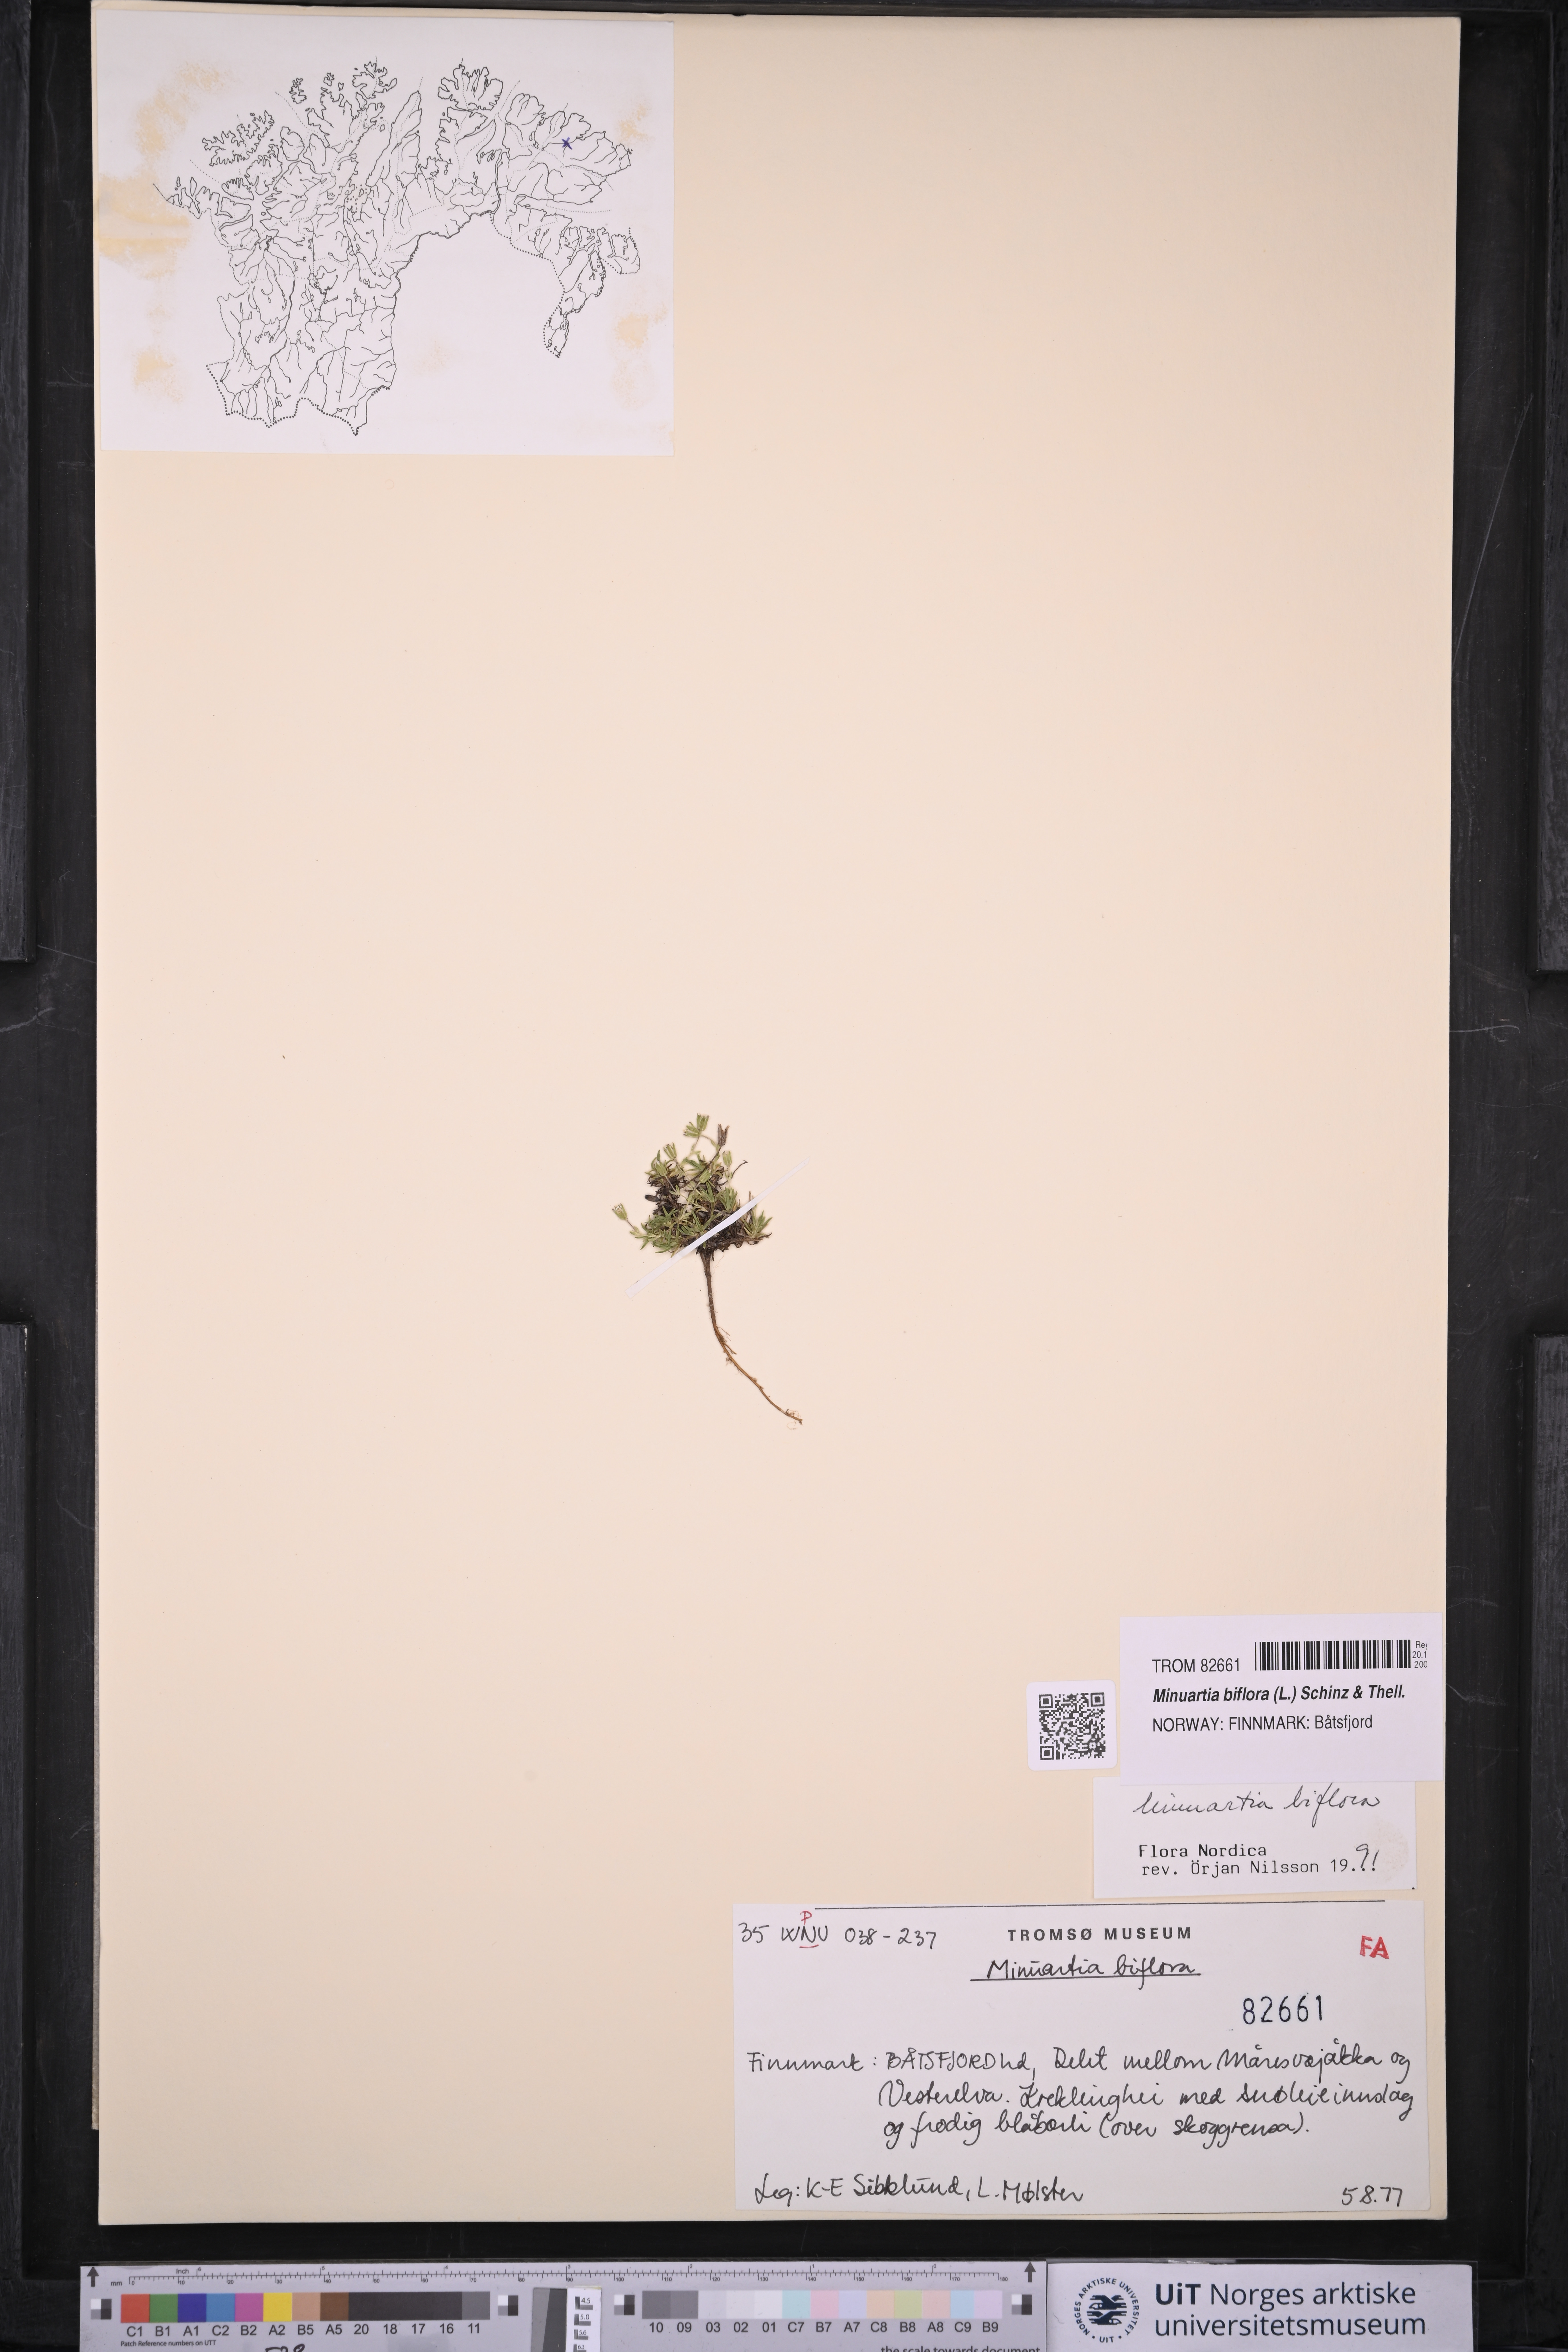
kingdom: Plantae
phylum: Tracheophyta
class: Magnoliopsida
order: Caryophyllales
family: Caryophyllaceae
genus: Cherleria
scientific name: Cherleria biflora
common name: Mountain sandwort
